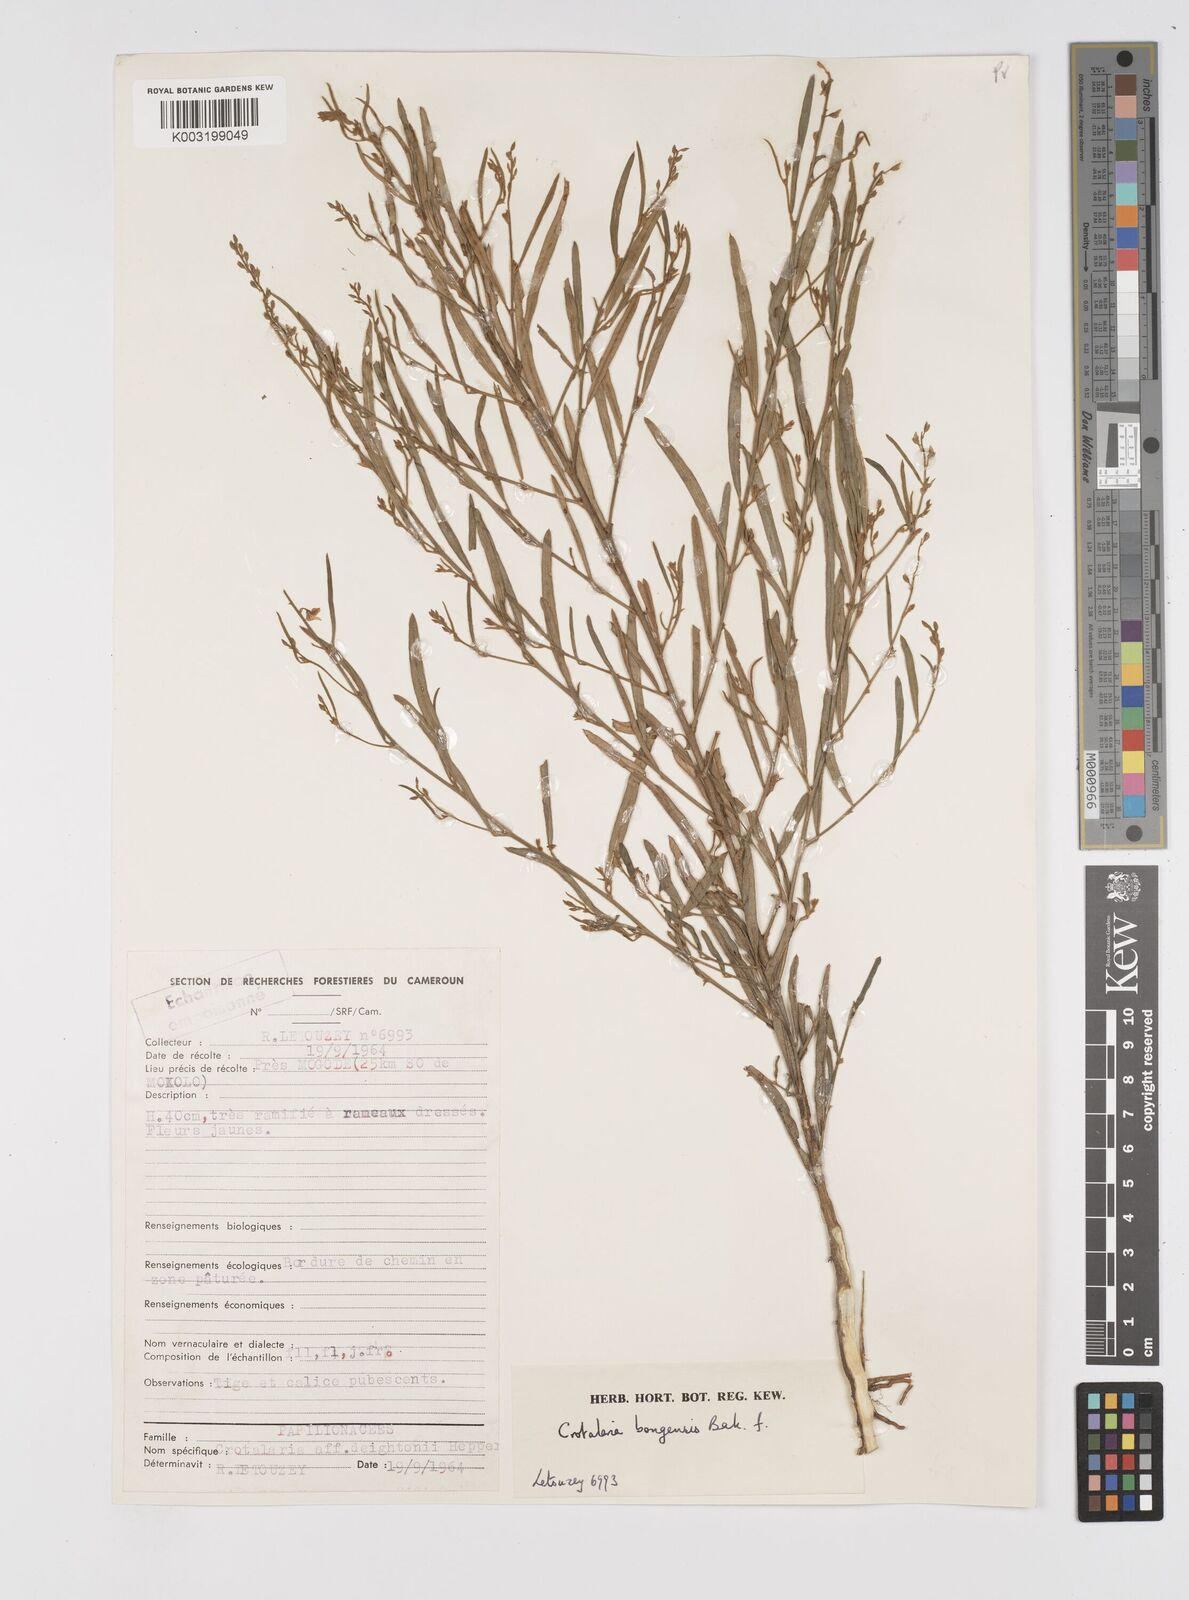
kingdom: Plantae
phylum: Tracheophyta
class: Magnoliopsida
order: Fabales
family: Fabaceae
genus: Crotalaria
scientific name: Crotalaria bongensis
